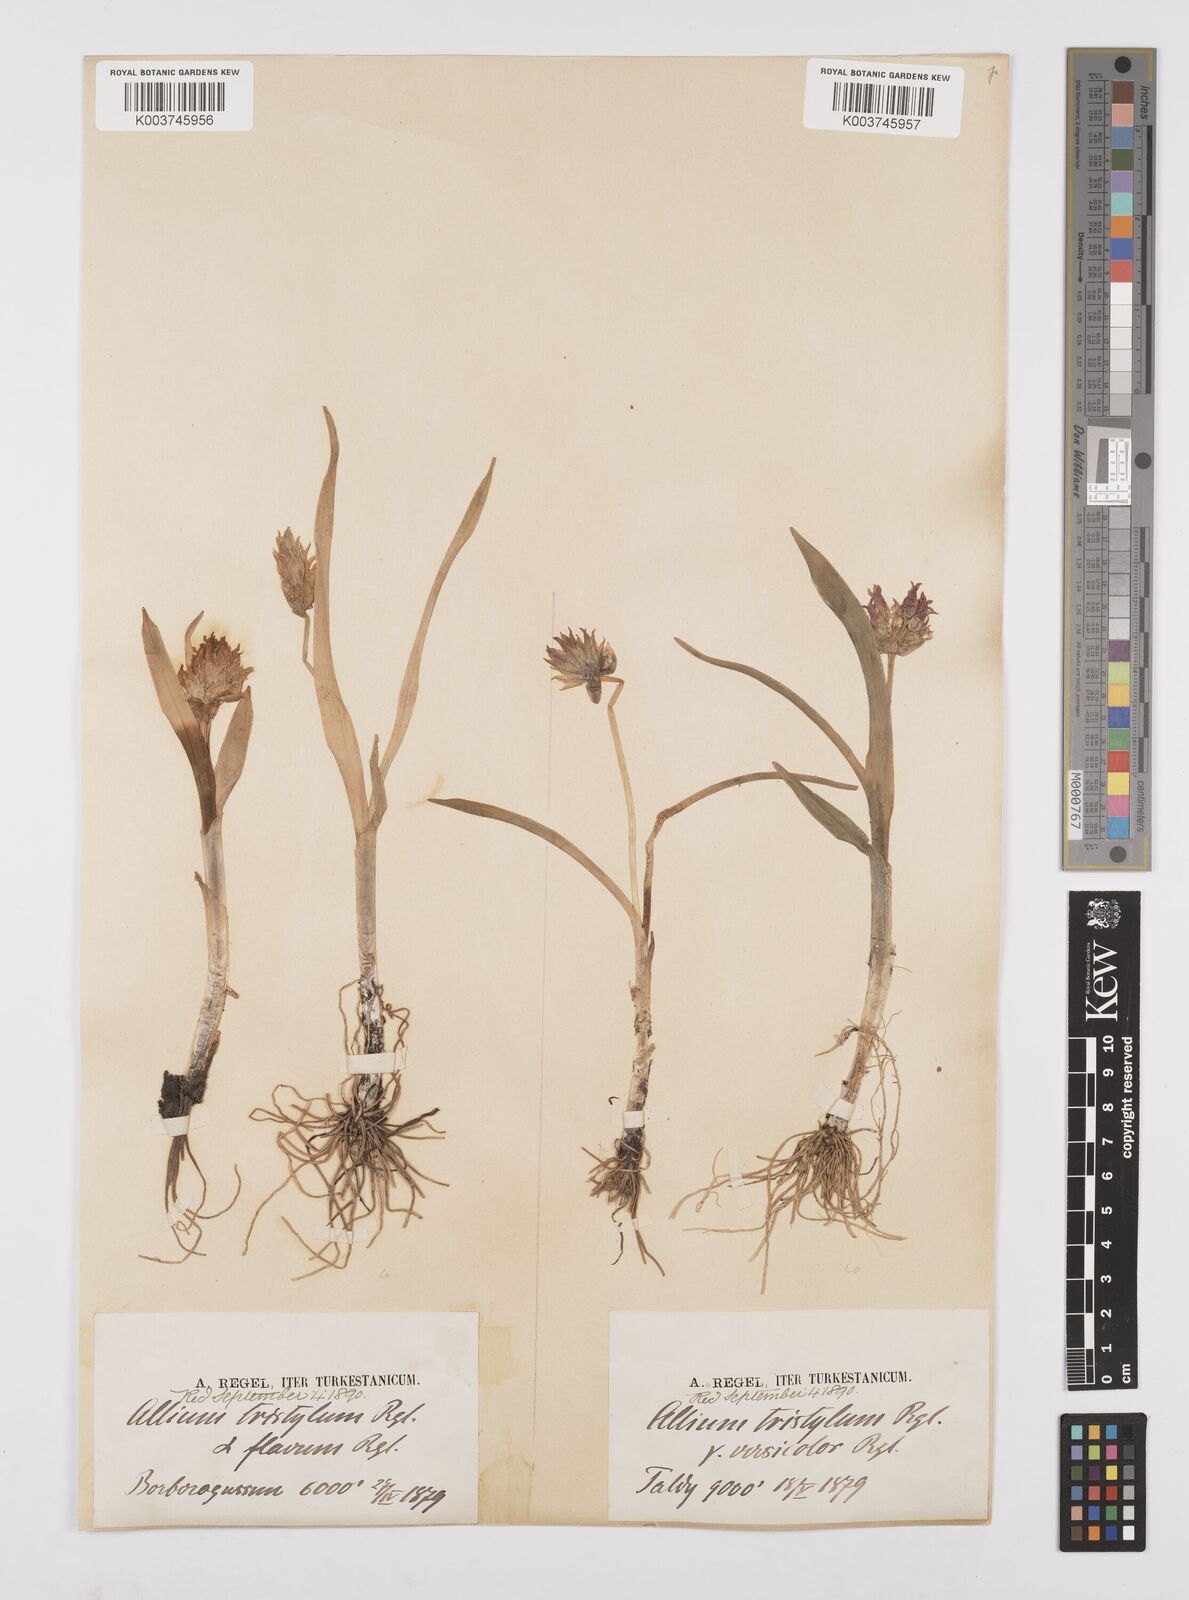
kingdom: Plantae
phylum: Tracheophyta
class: Liliopsida
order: Asparagales
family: Amaryllidaceae
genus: Allium
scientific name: Allium semenovii
